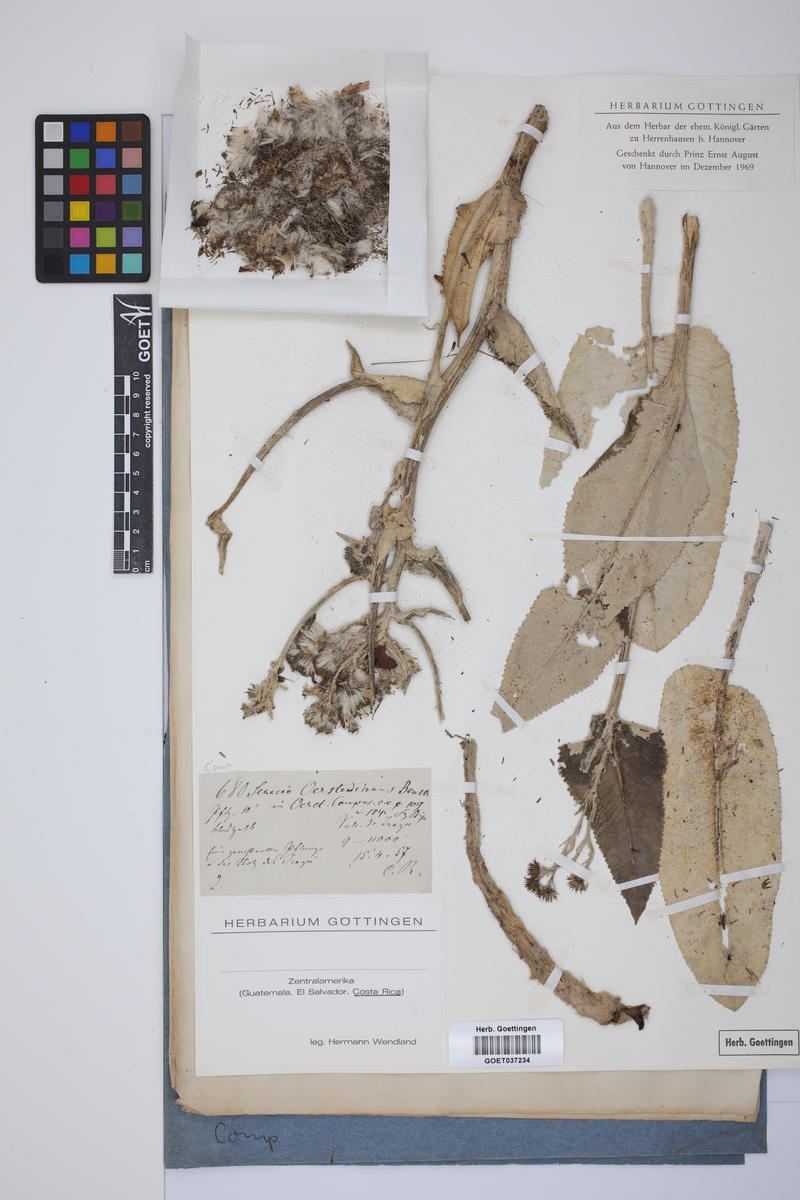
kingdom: Plantae
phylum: Tracheophyta
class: Magnoliopsida
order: Asterales
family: Asteraceae
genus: Senecio
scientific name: Senecio oerstedianus
